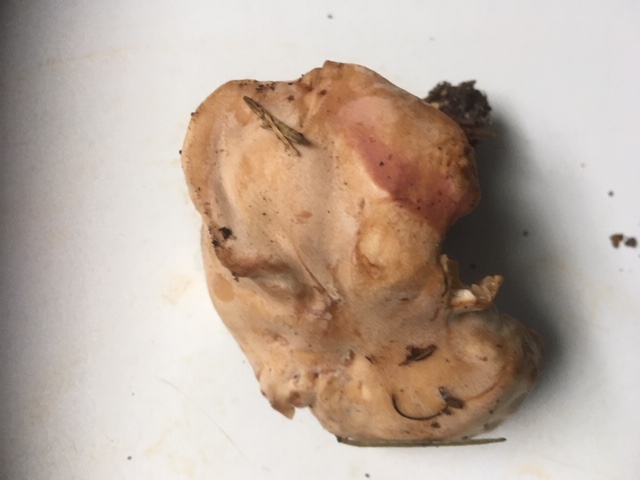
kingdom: Fungi
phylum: Basidiomycota
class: Agaricomycetes
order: Agaricales
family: Entolomataceae
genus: Clitopilus
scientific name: Clitopilus geminus
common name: kødfarvet troldhat
